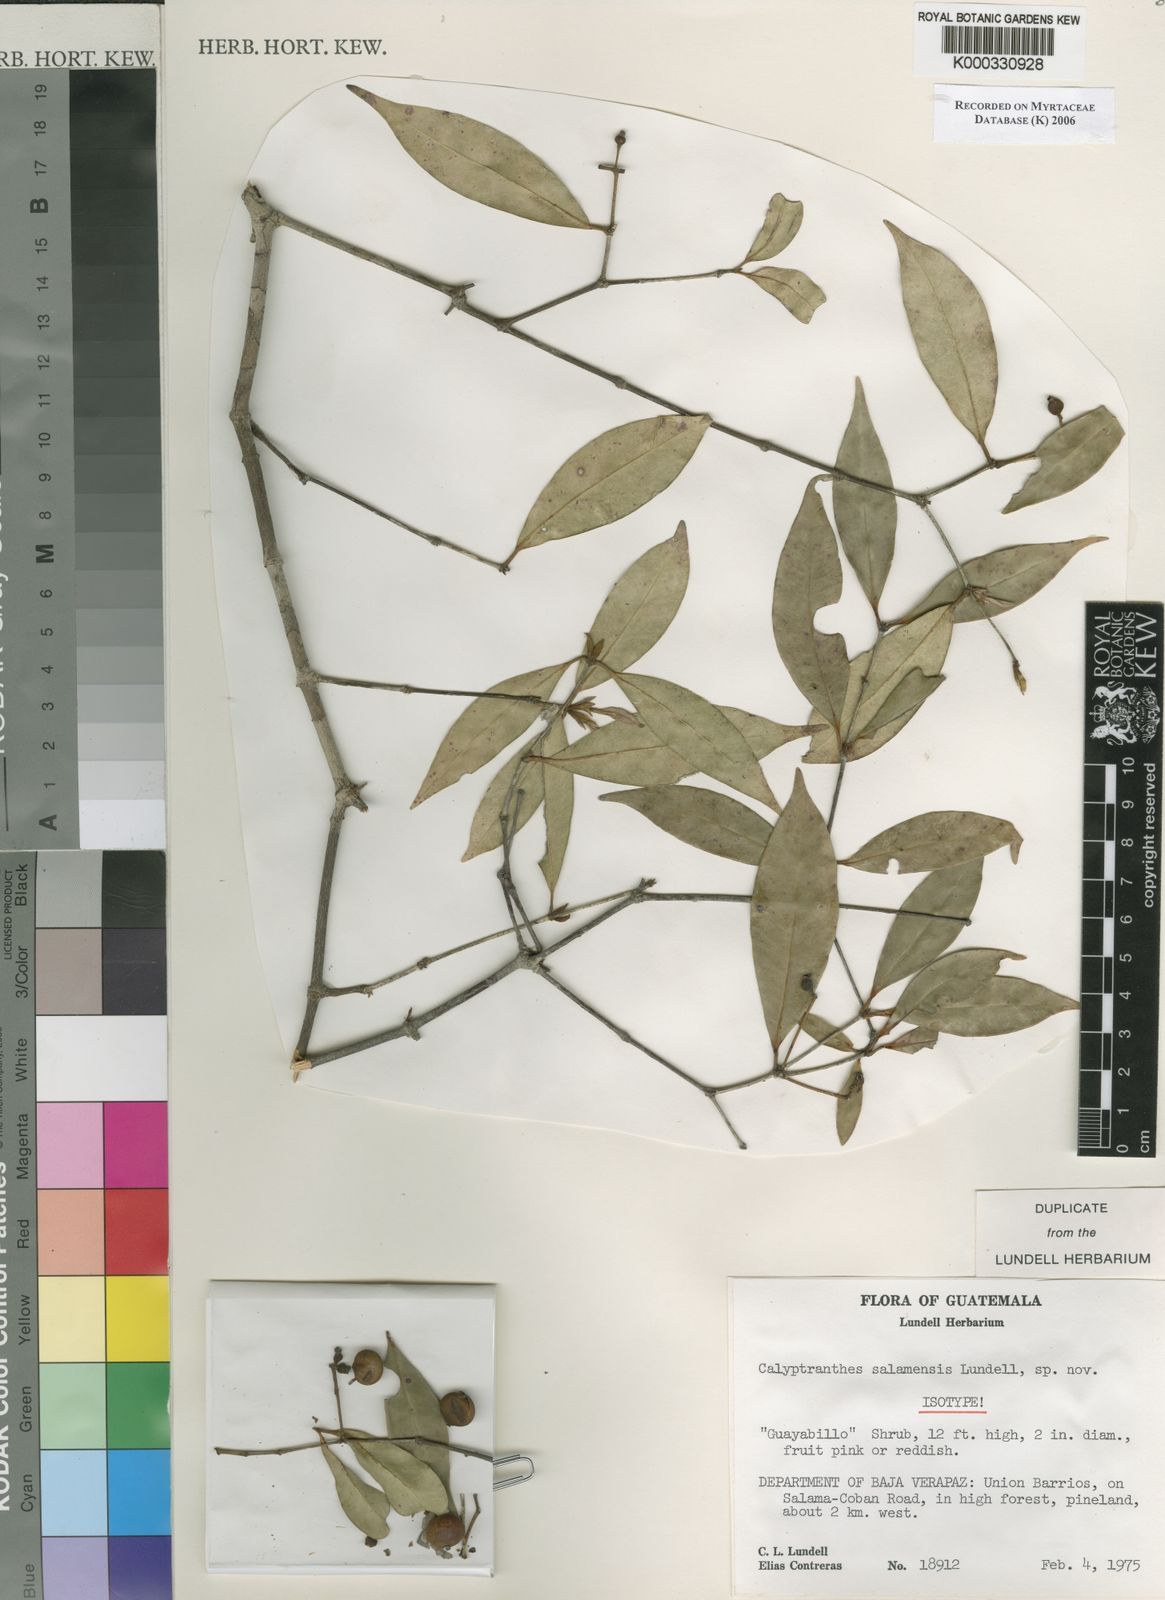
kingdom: Plantae
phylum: Tracheophyta
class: Magnoliopsida
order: Myrtales
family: Myrtaceae
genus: Myrcia
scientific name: Myrcia salamensis
